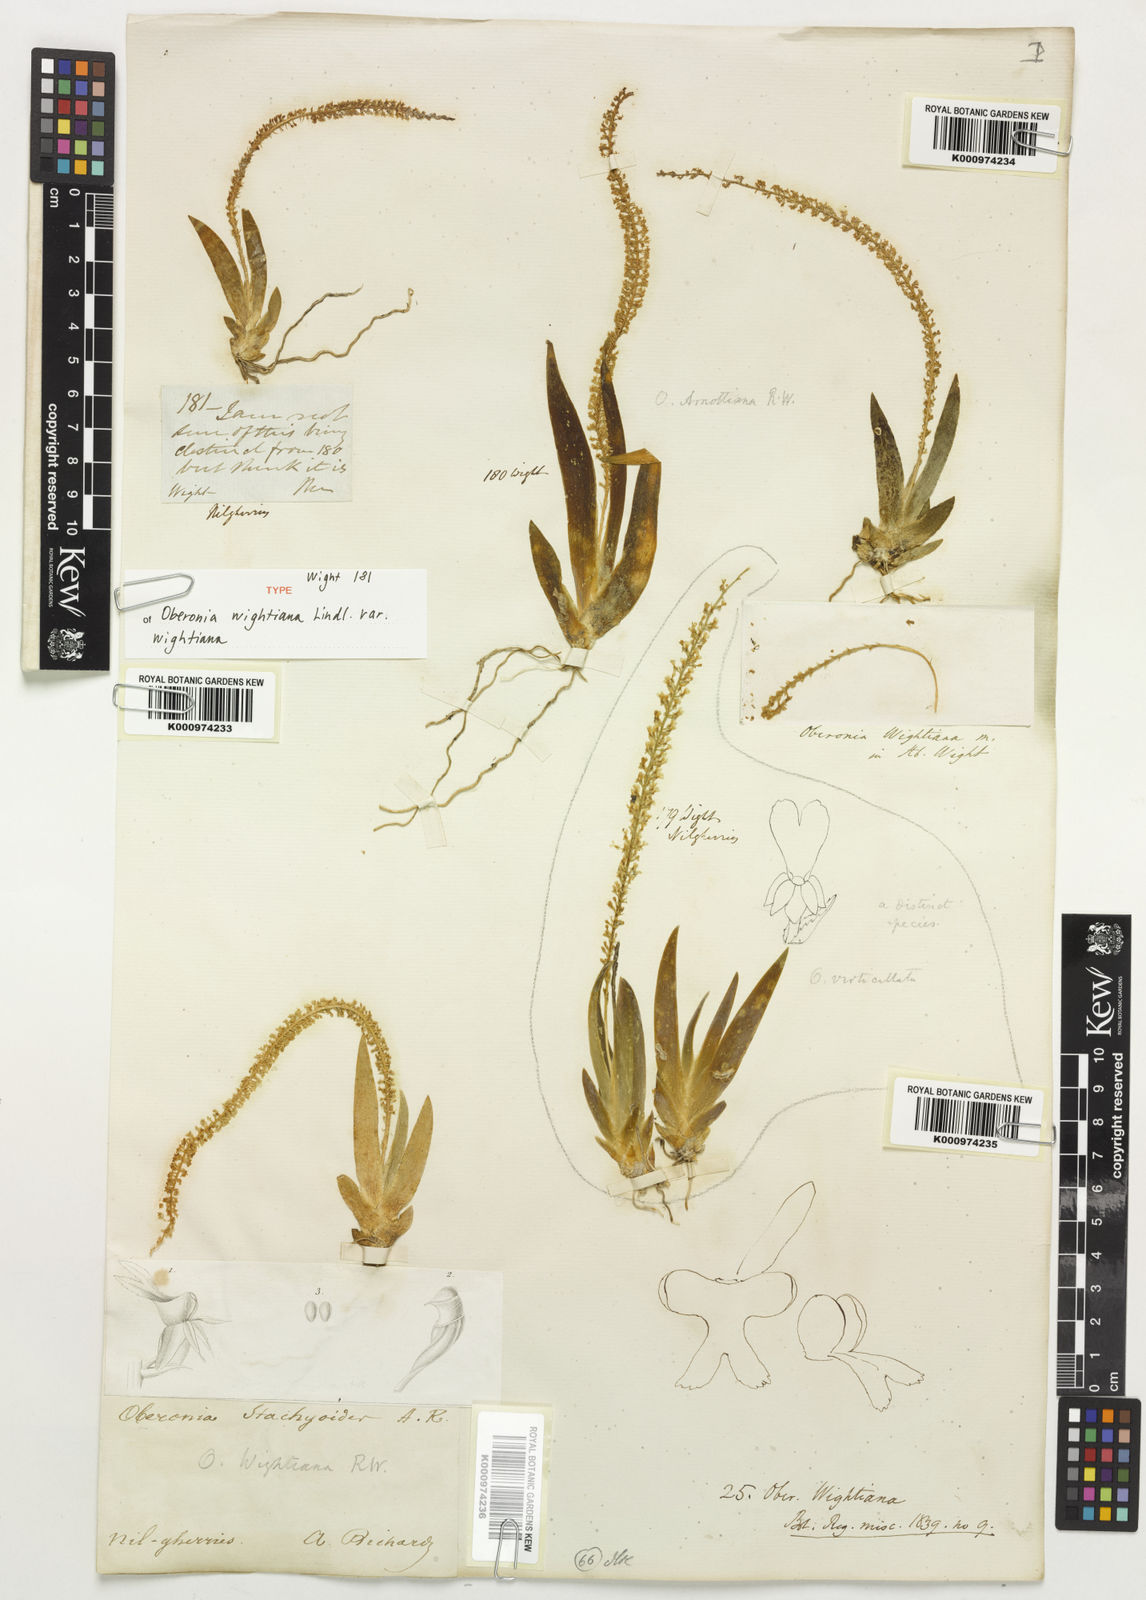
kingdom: Plantae
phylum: Tracheophyta
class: Liliopsida
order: Asparagales
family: Orchidaceae
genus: Oberonia
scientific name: Oberonia wightiana
